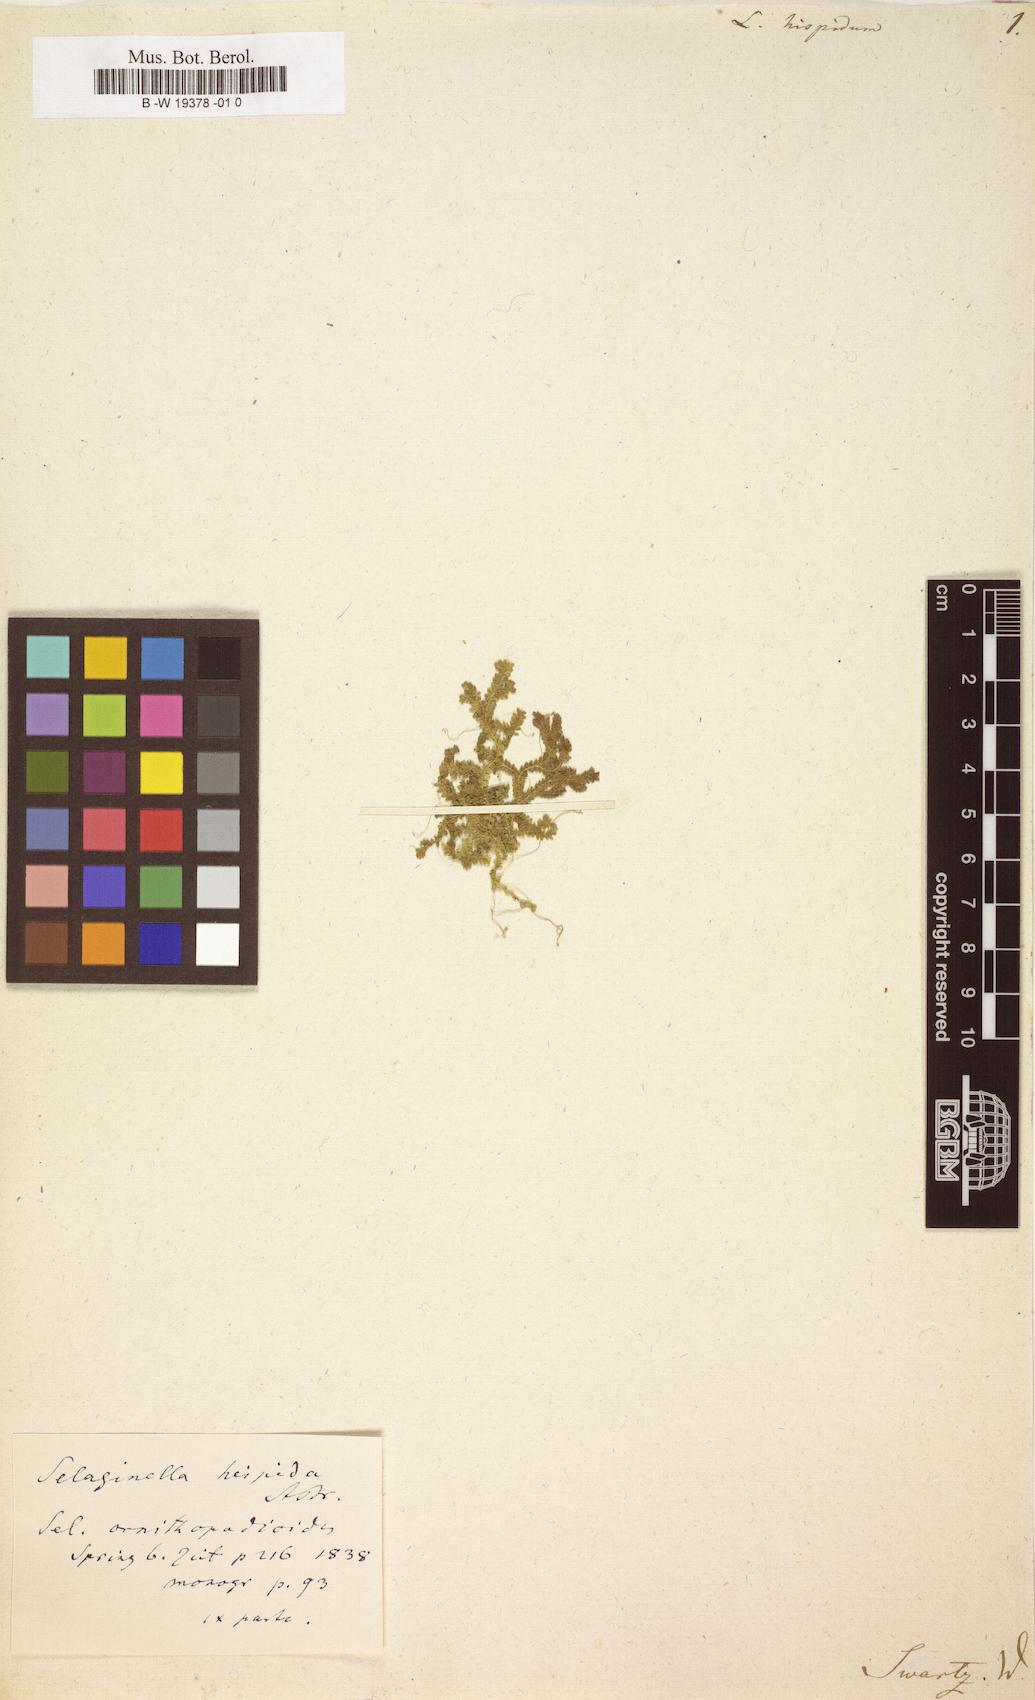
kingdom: Plantae
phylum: Tracheophyta
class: Lycopodiopsida
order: Selaginellales
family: Selaginellaceae
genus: Selaginella
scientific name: Selaginella hispida
